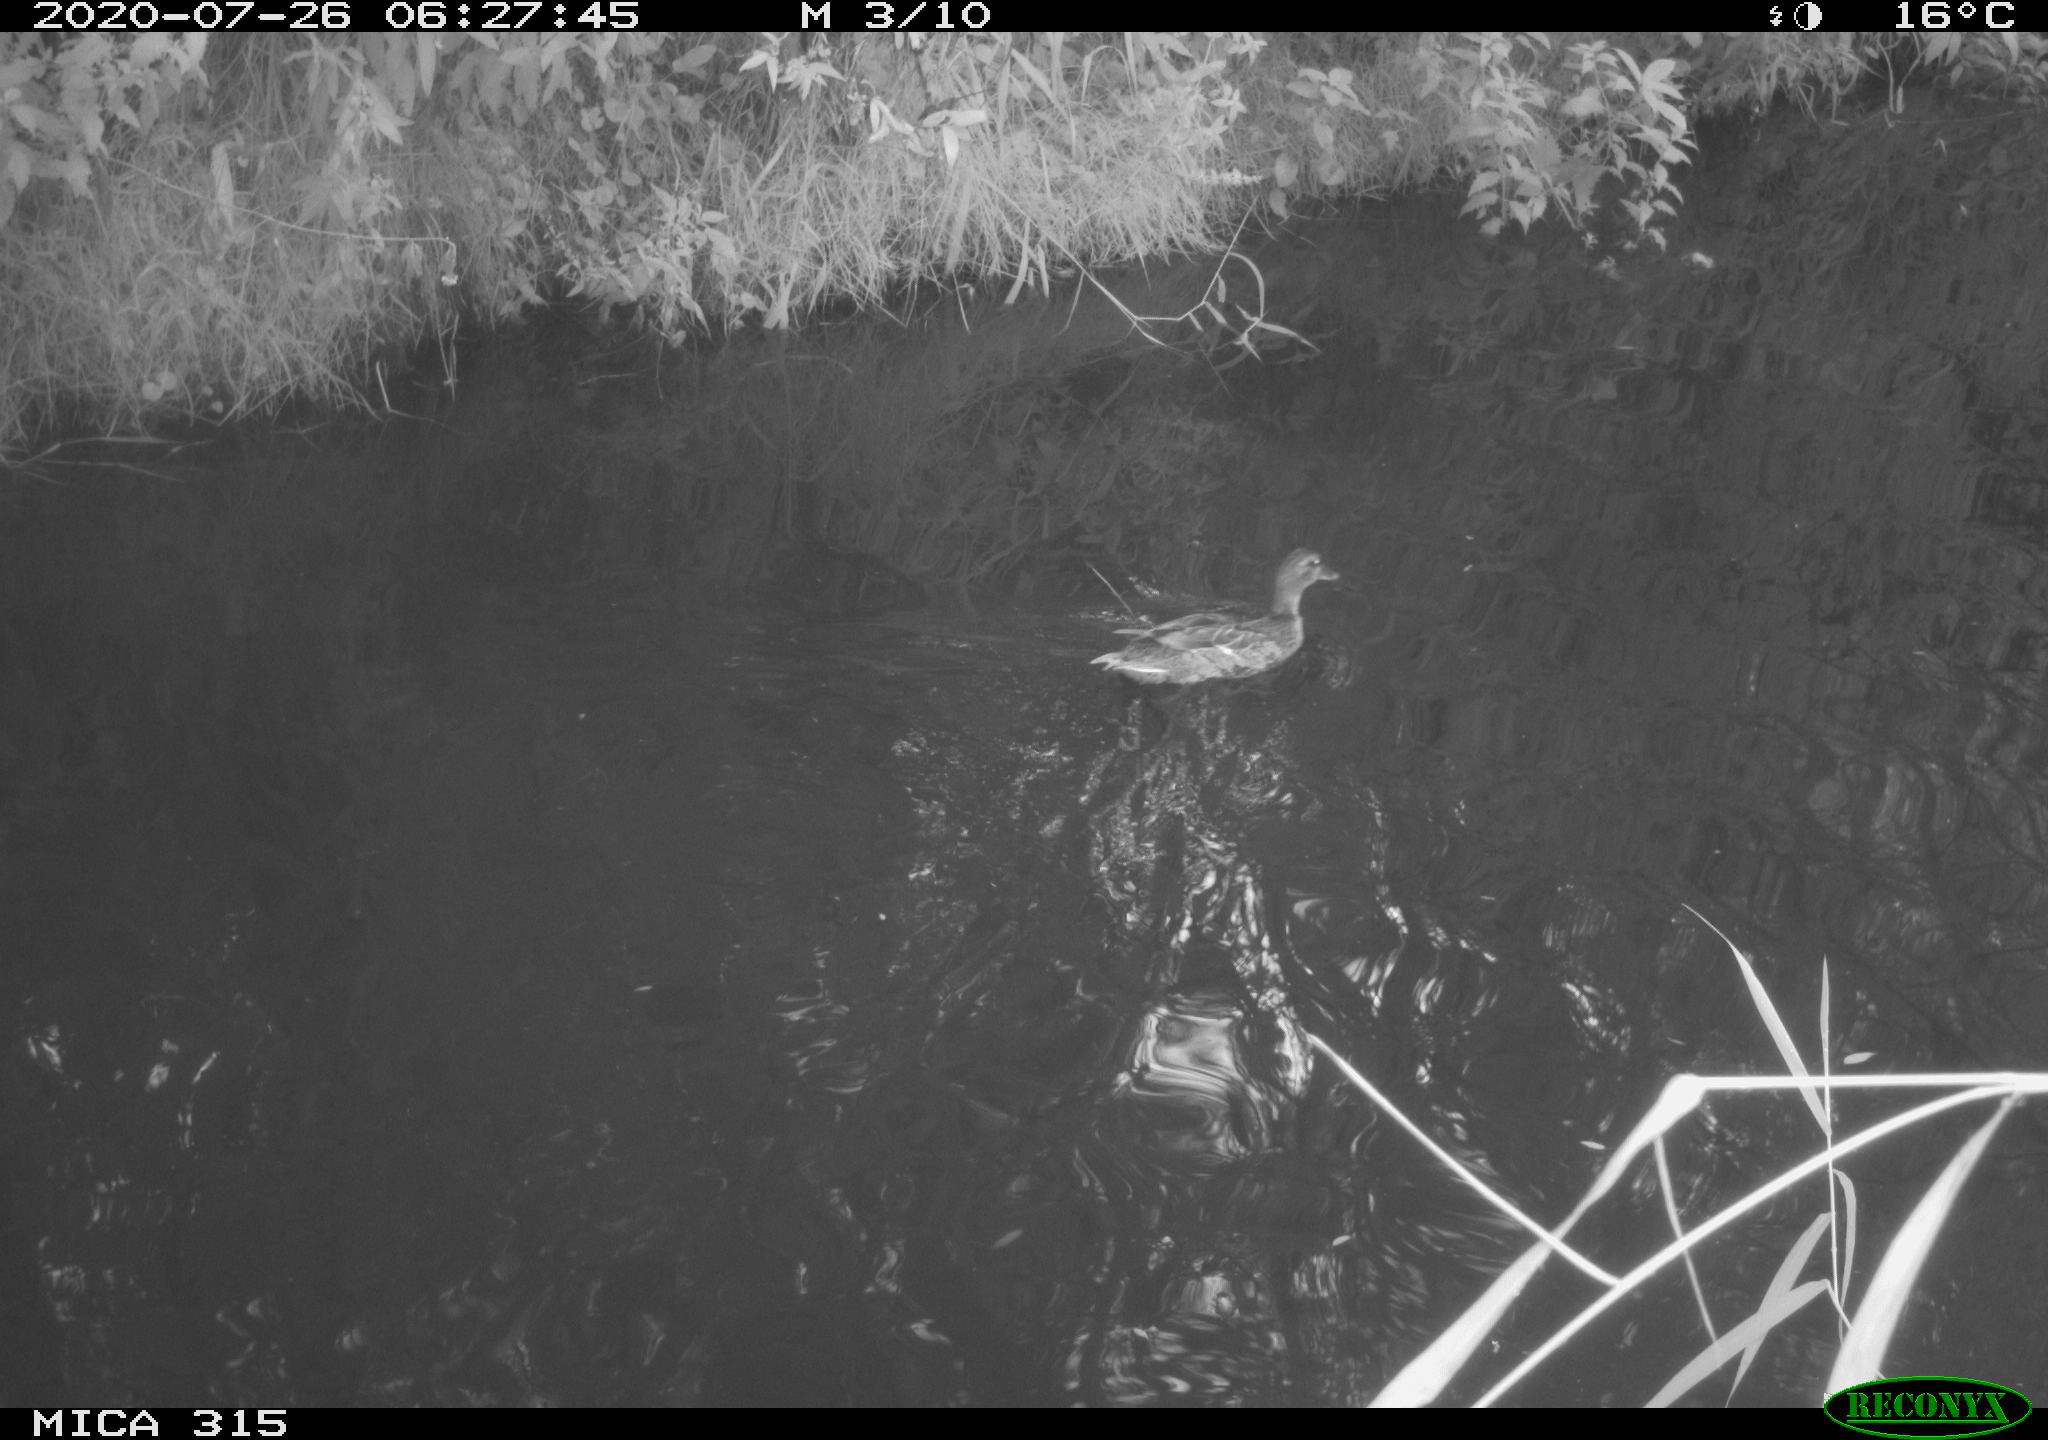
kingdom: Animalia
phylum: Chordata
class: Aves
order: Anseriformes
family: Anatidae
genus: Anas
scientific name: Anas platyrhynchos
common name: Mallard
